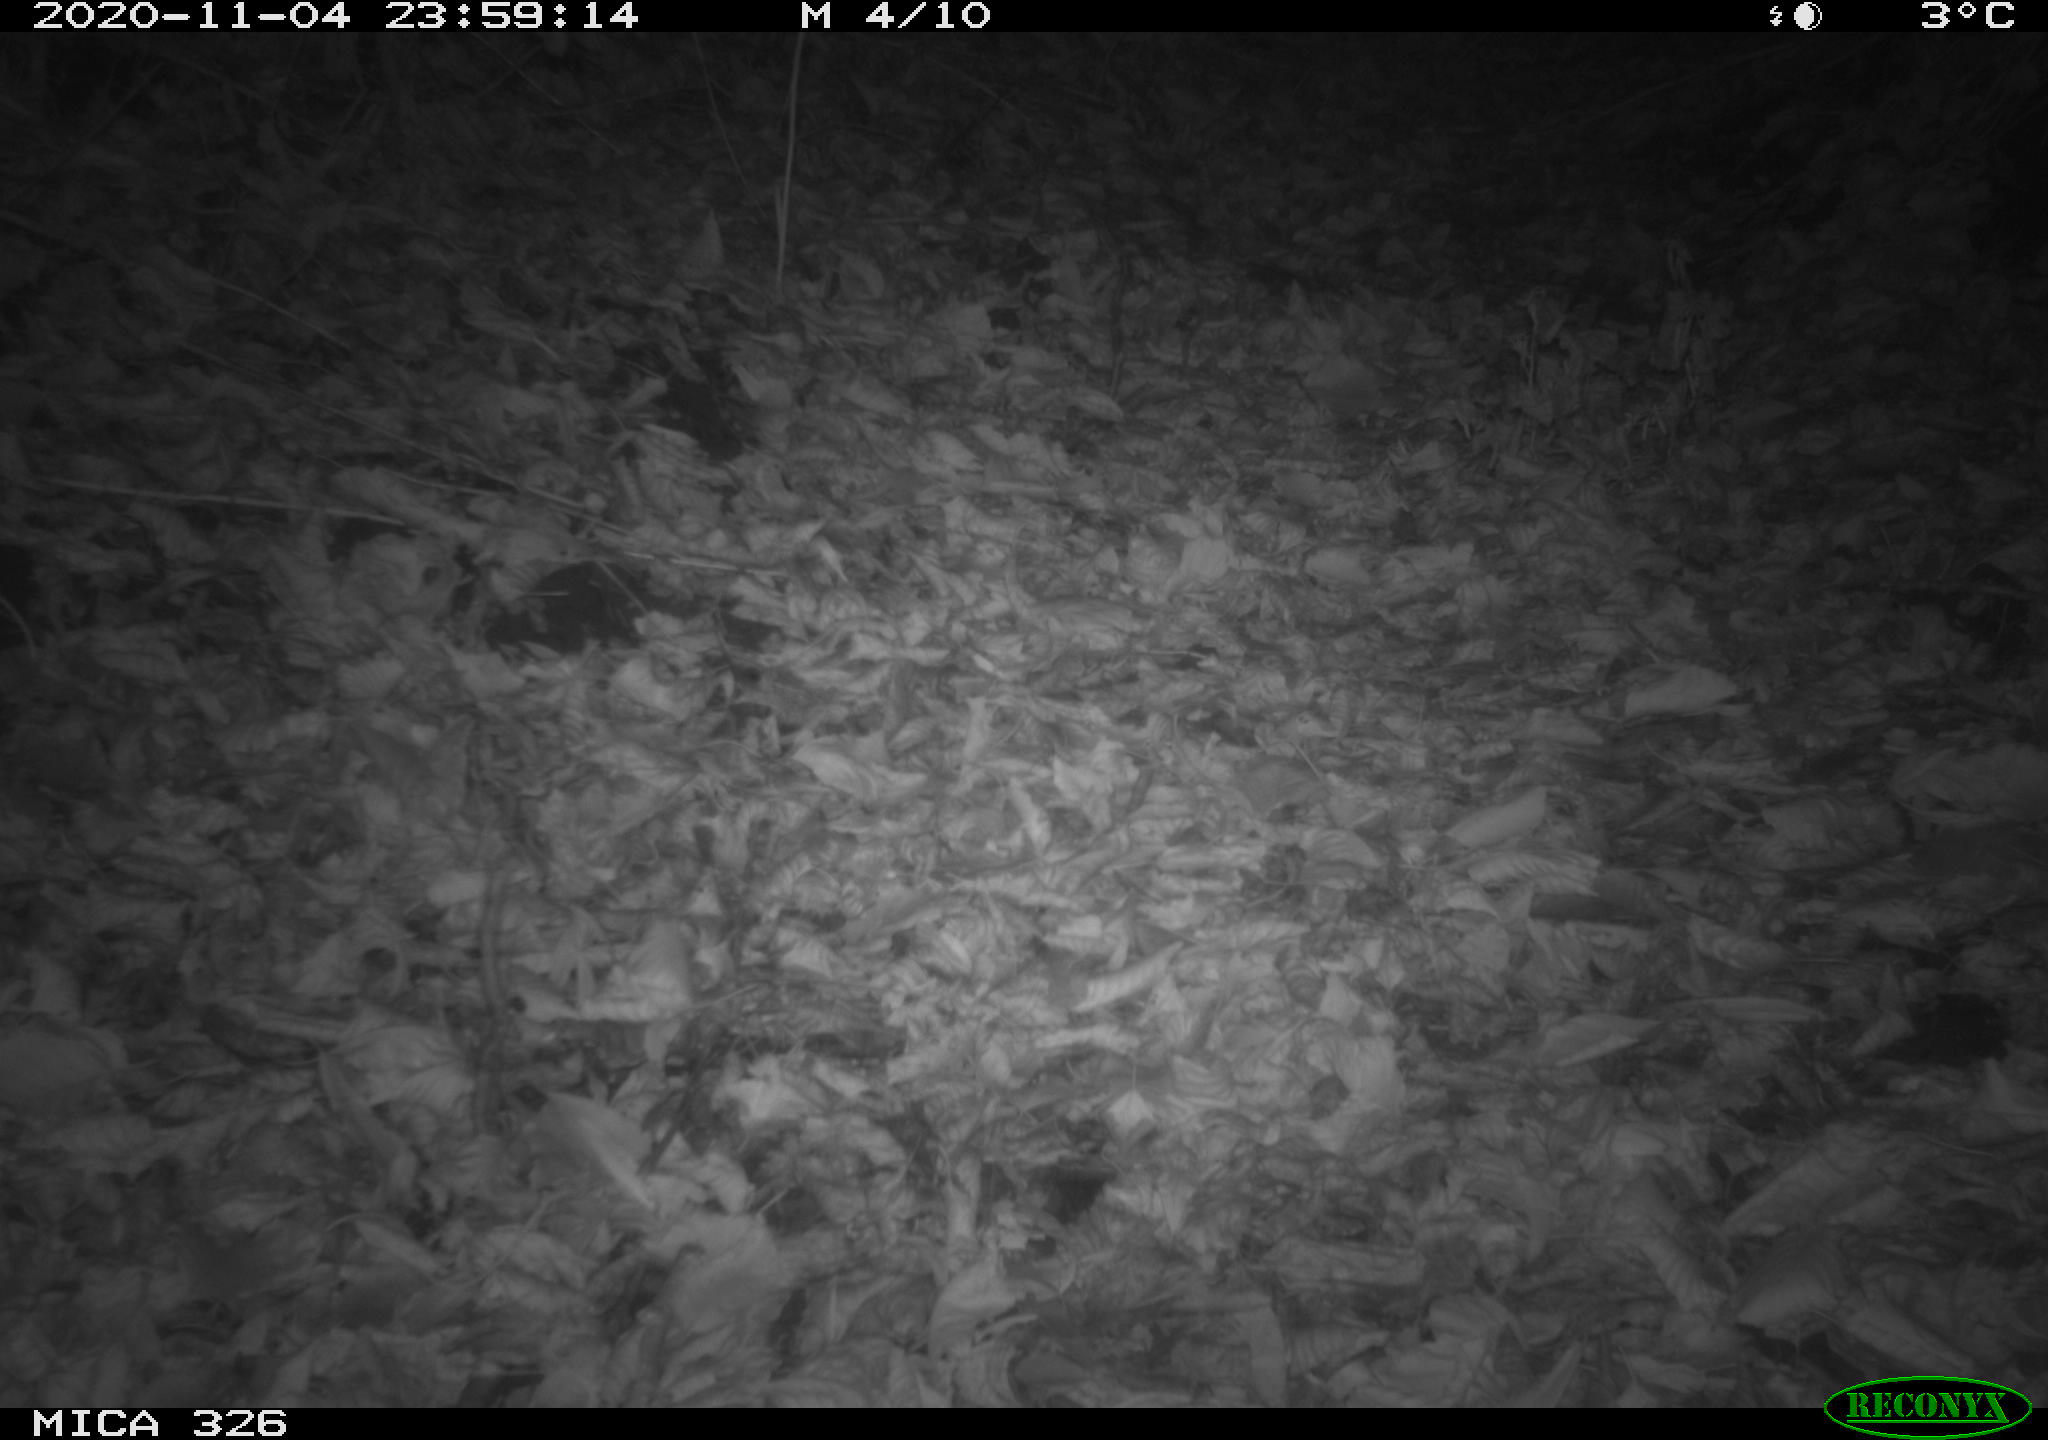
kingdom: Animalia
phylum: Chordata
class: Mammalia
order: Carnivora
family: Mustelidae
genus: Lutra
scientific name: Lutra lutra
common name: European otter
